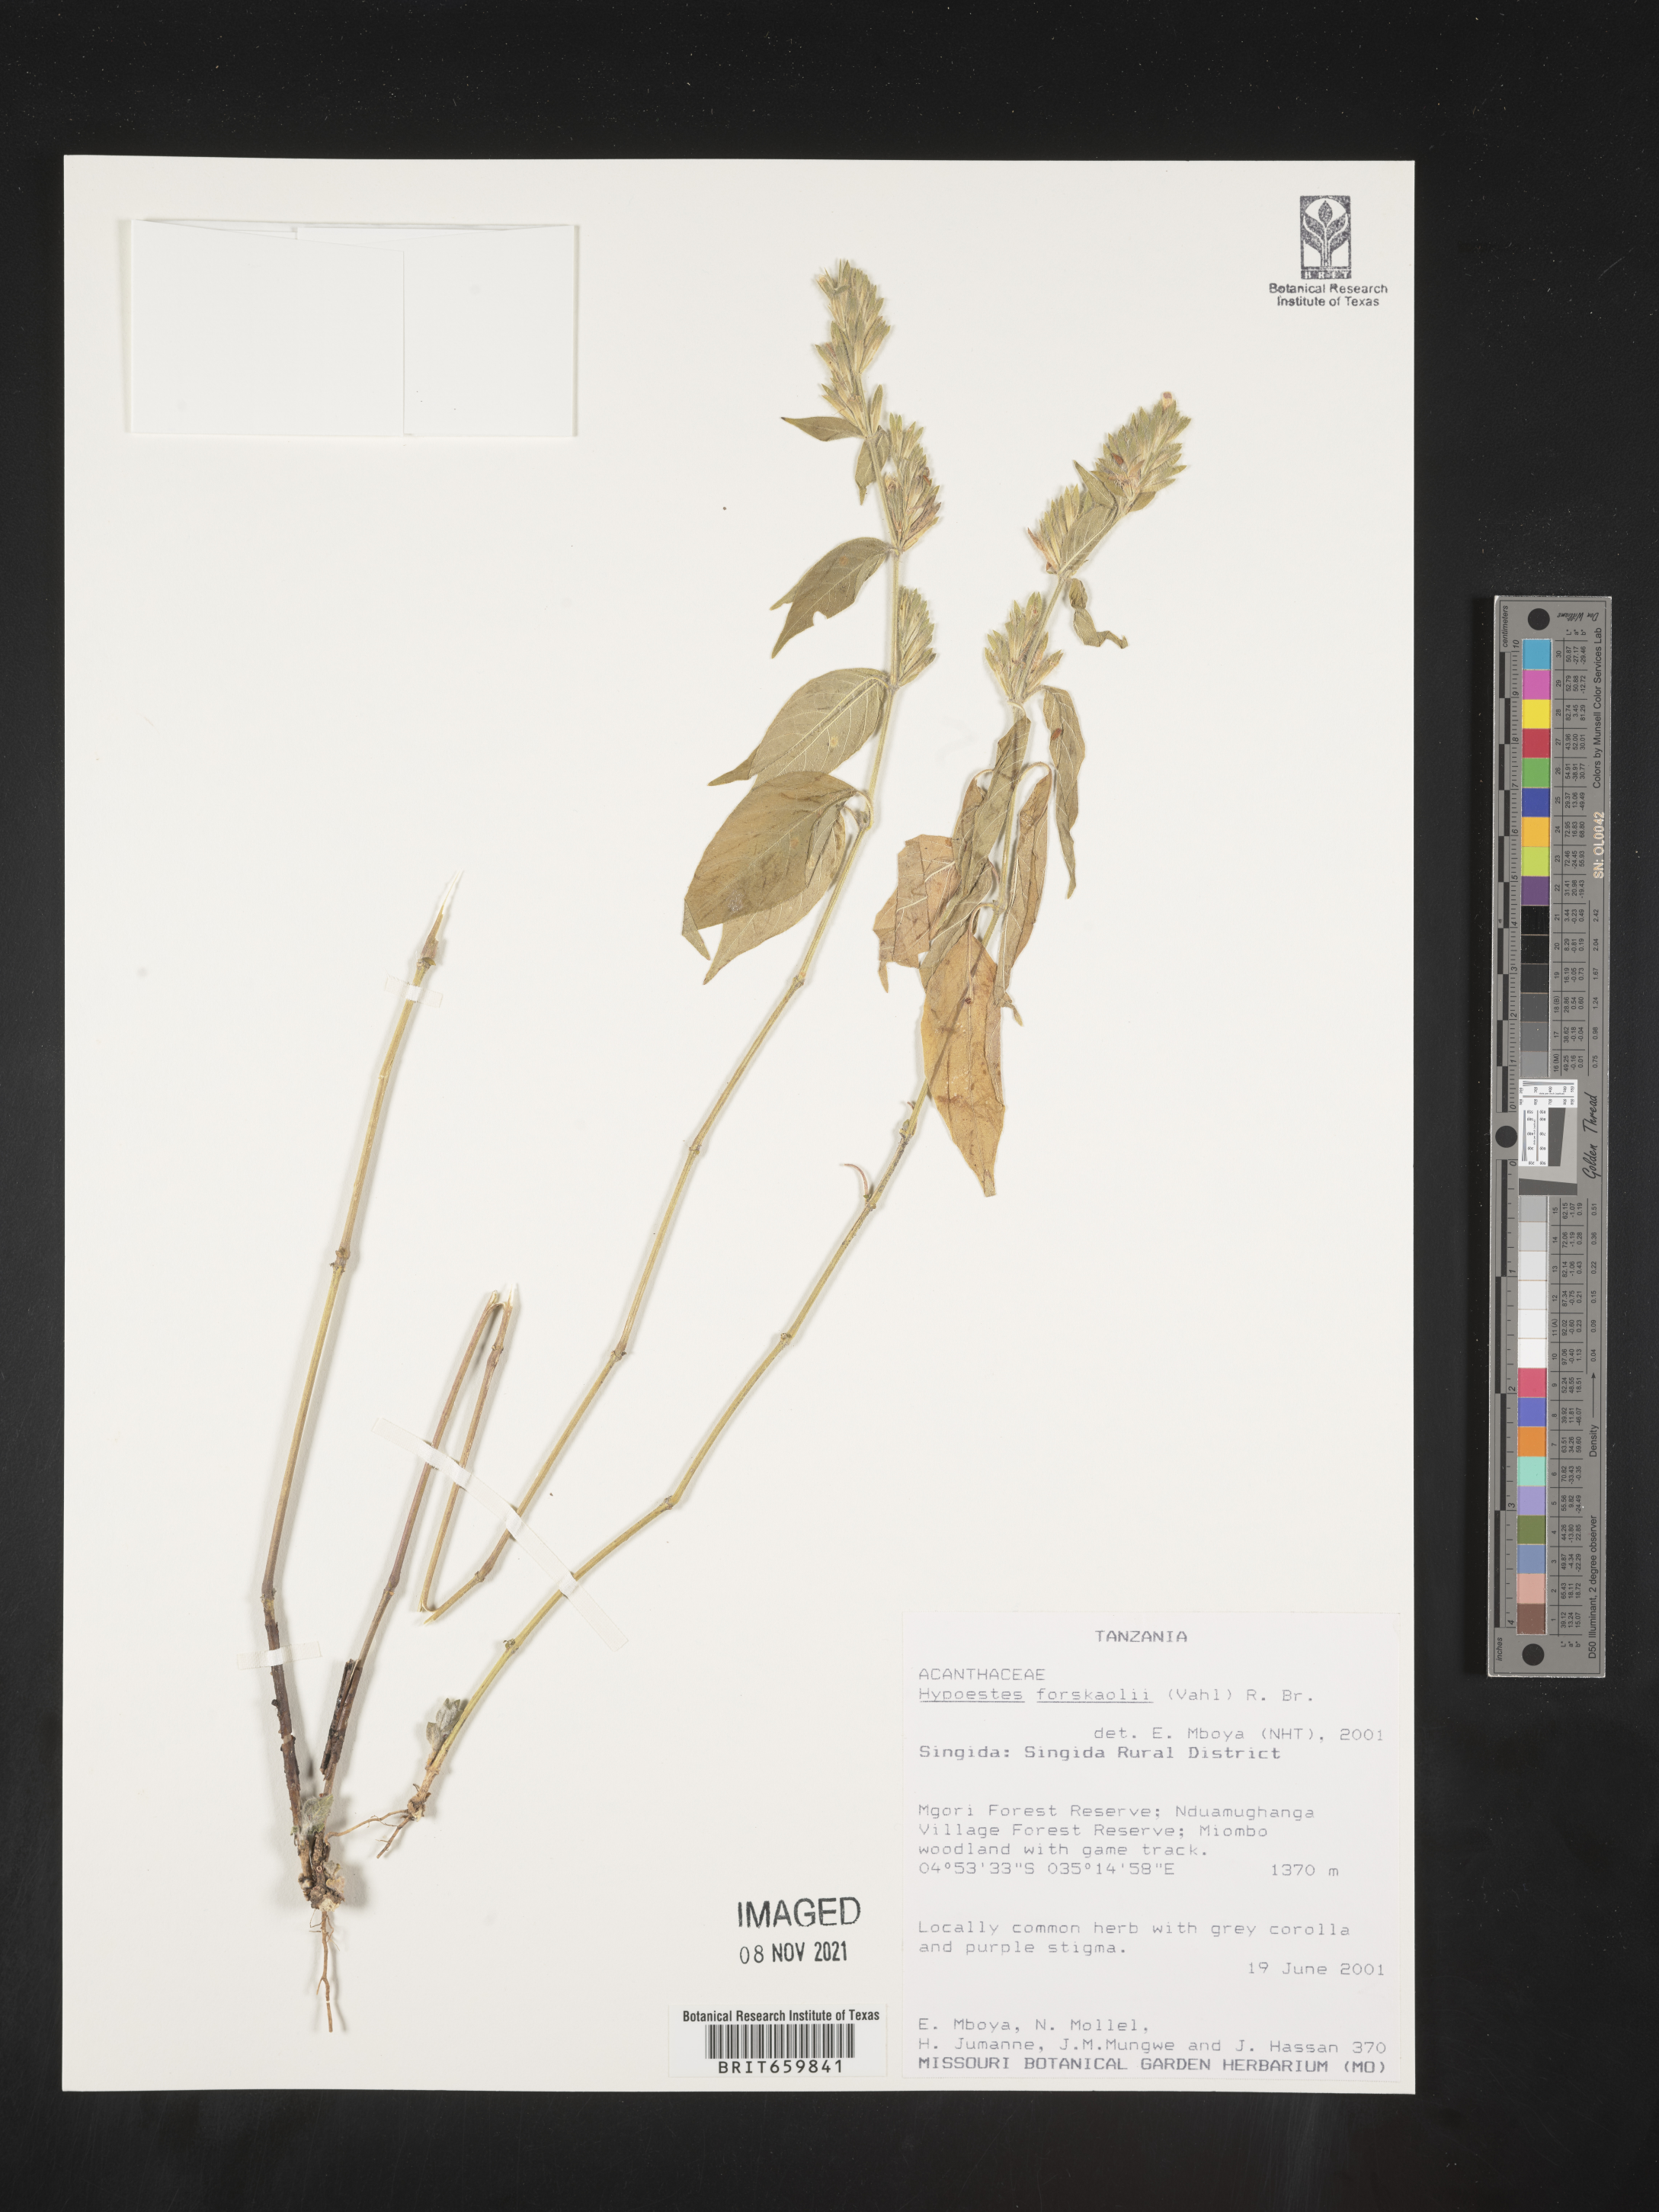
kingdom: Plantae
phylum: Tracheophyta
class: Magnoliopsida
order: Lamiales
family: Acanthaceae
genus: Hypoestes
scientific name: Hypoestes forskaolii
